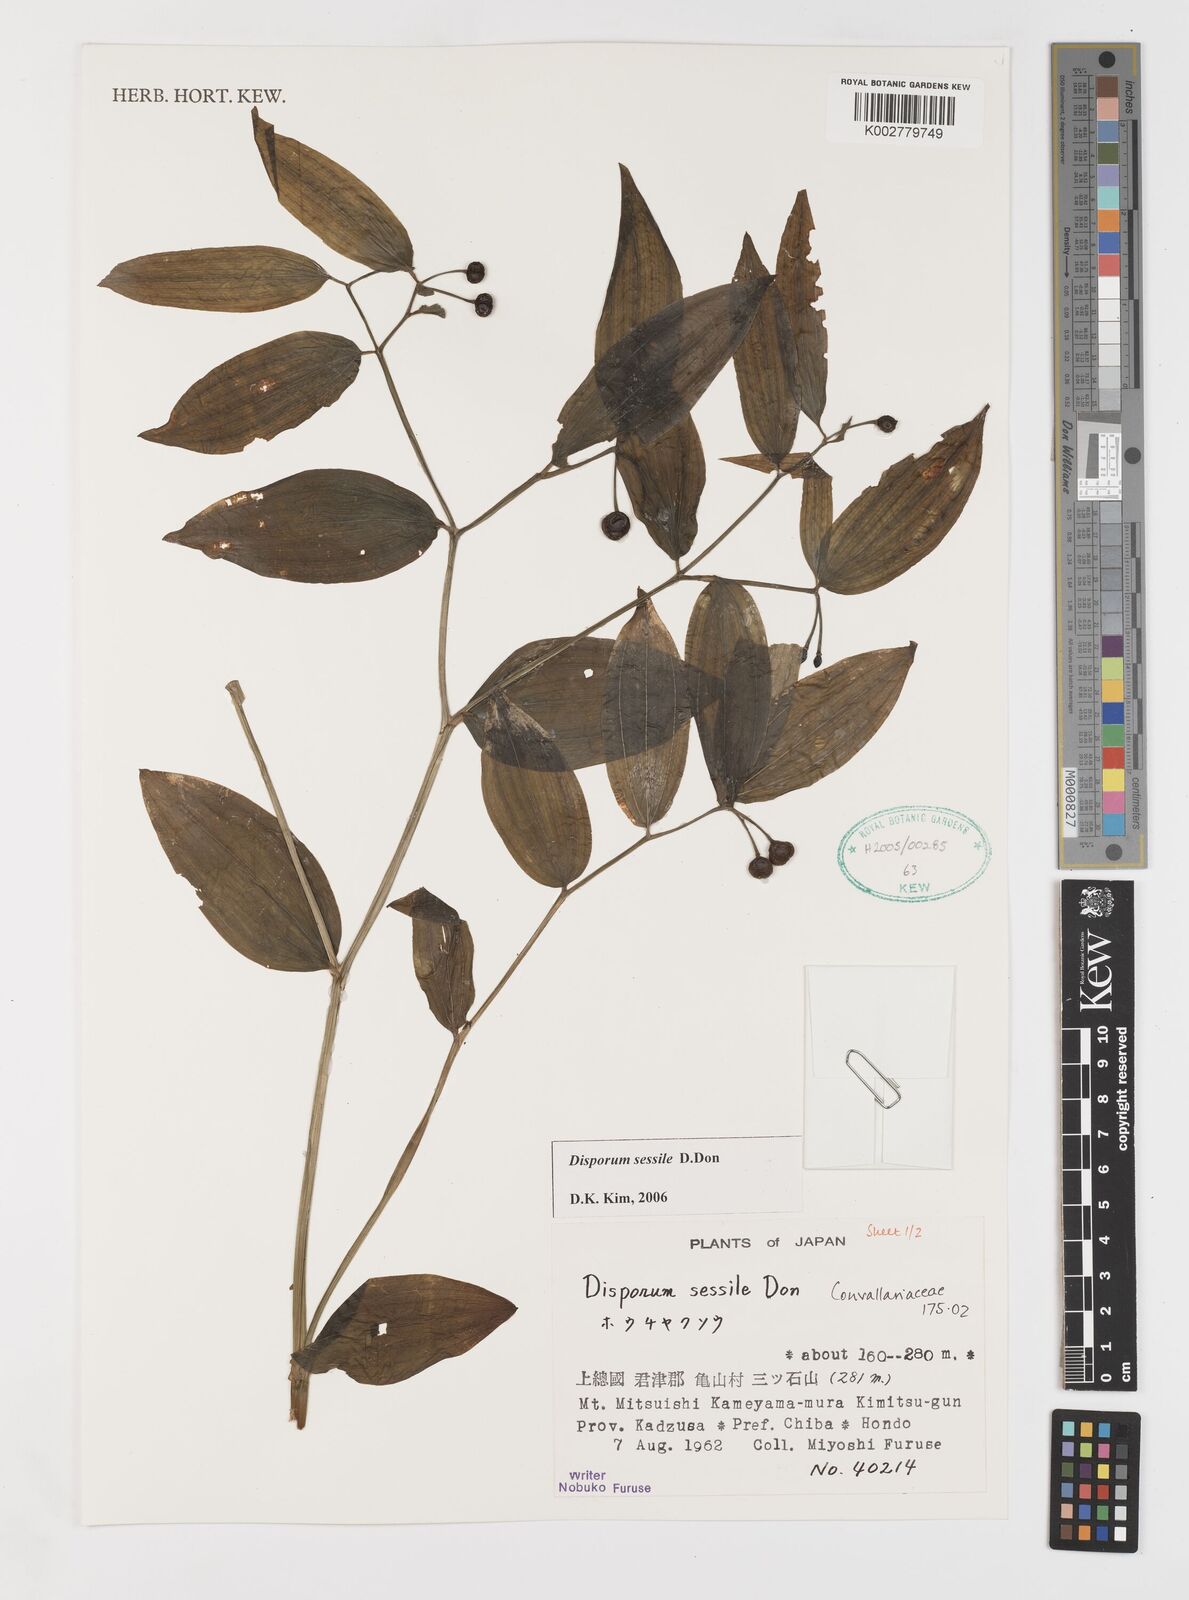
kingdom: Plantae
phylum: Tracheophyta
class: Liliopsida
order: Liliales
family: Colchicaceae
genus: Disporum
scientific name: Disporum sessile
